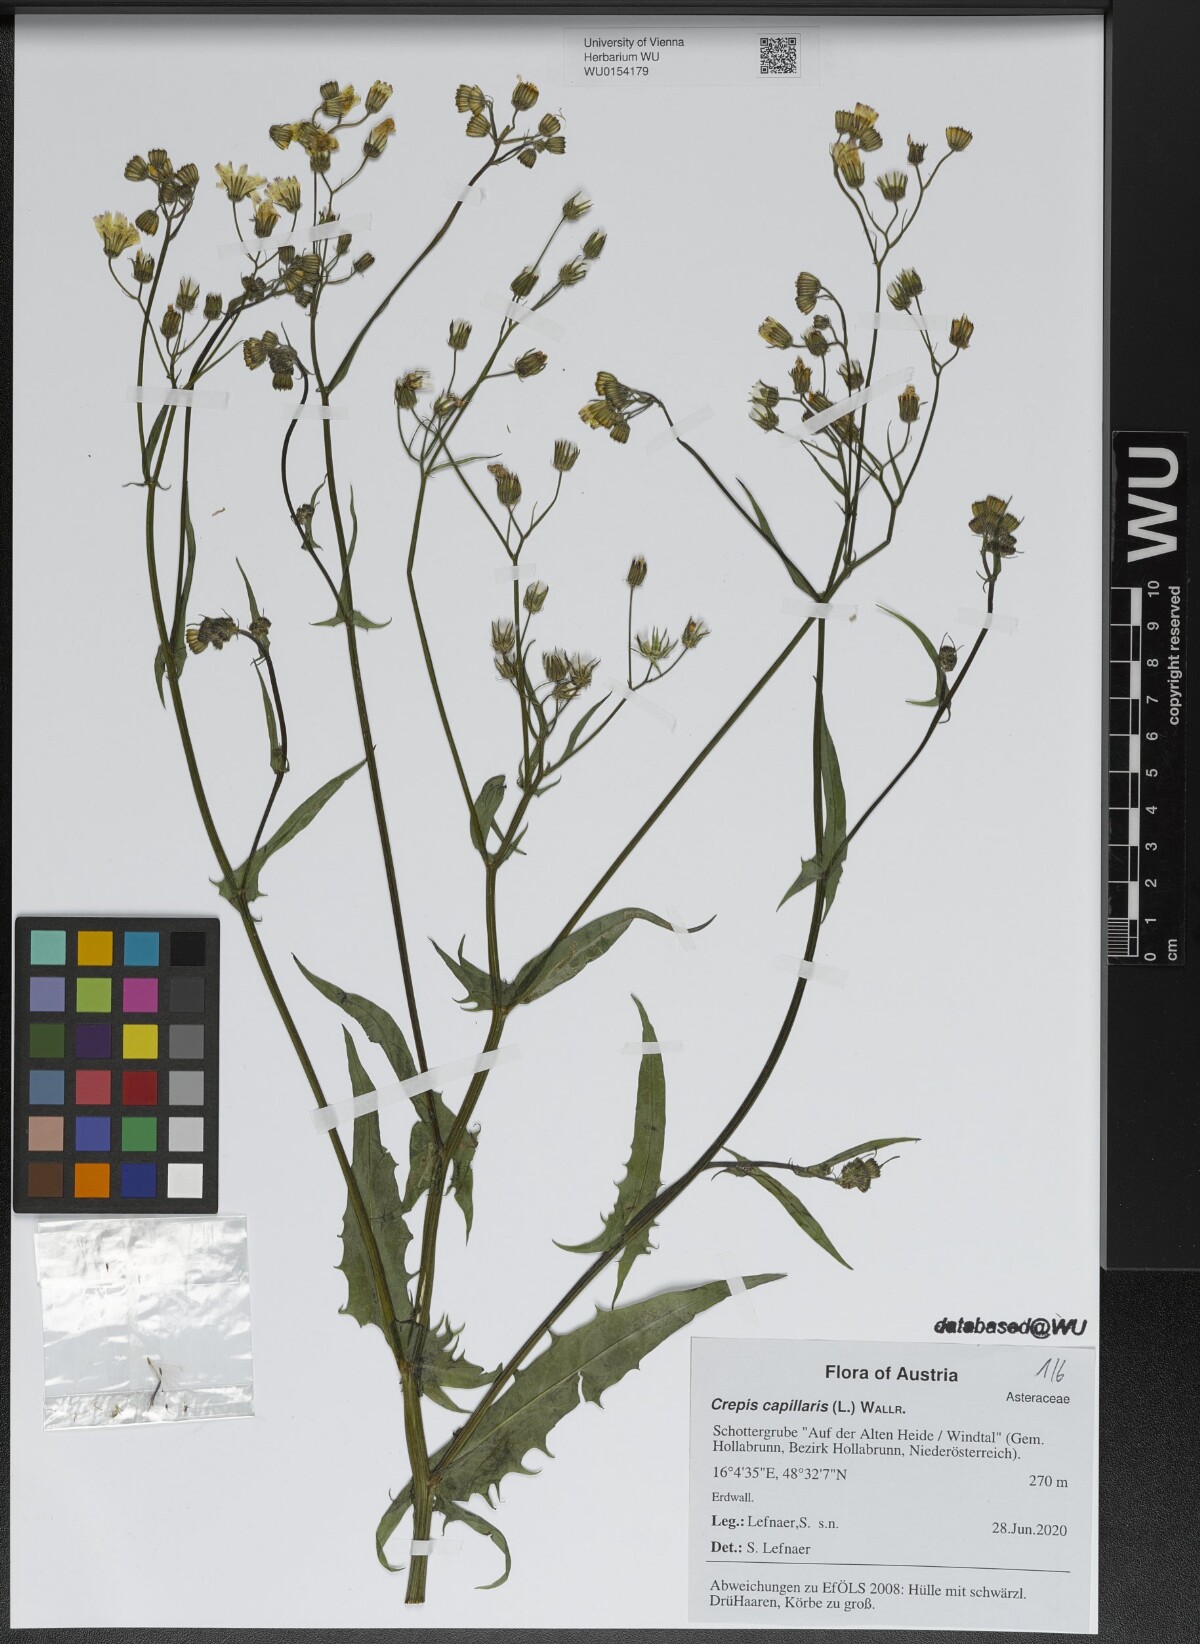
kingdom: Plantae
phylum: Tracheophyta
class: Magnoliopsida
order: Asterales
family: Asteraceae
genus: Crepis
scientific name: Crepis capillaris
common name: Smooth hawksbeard
